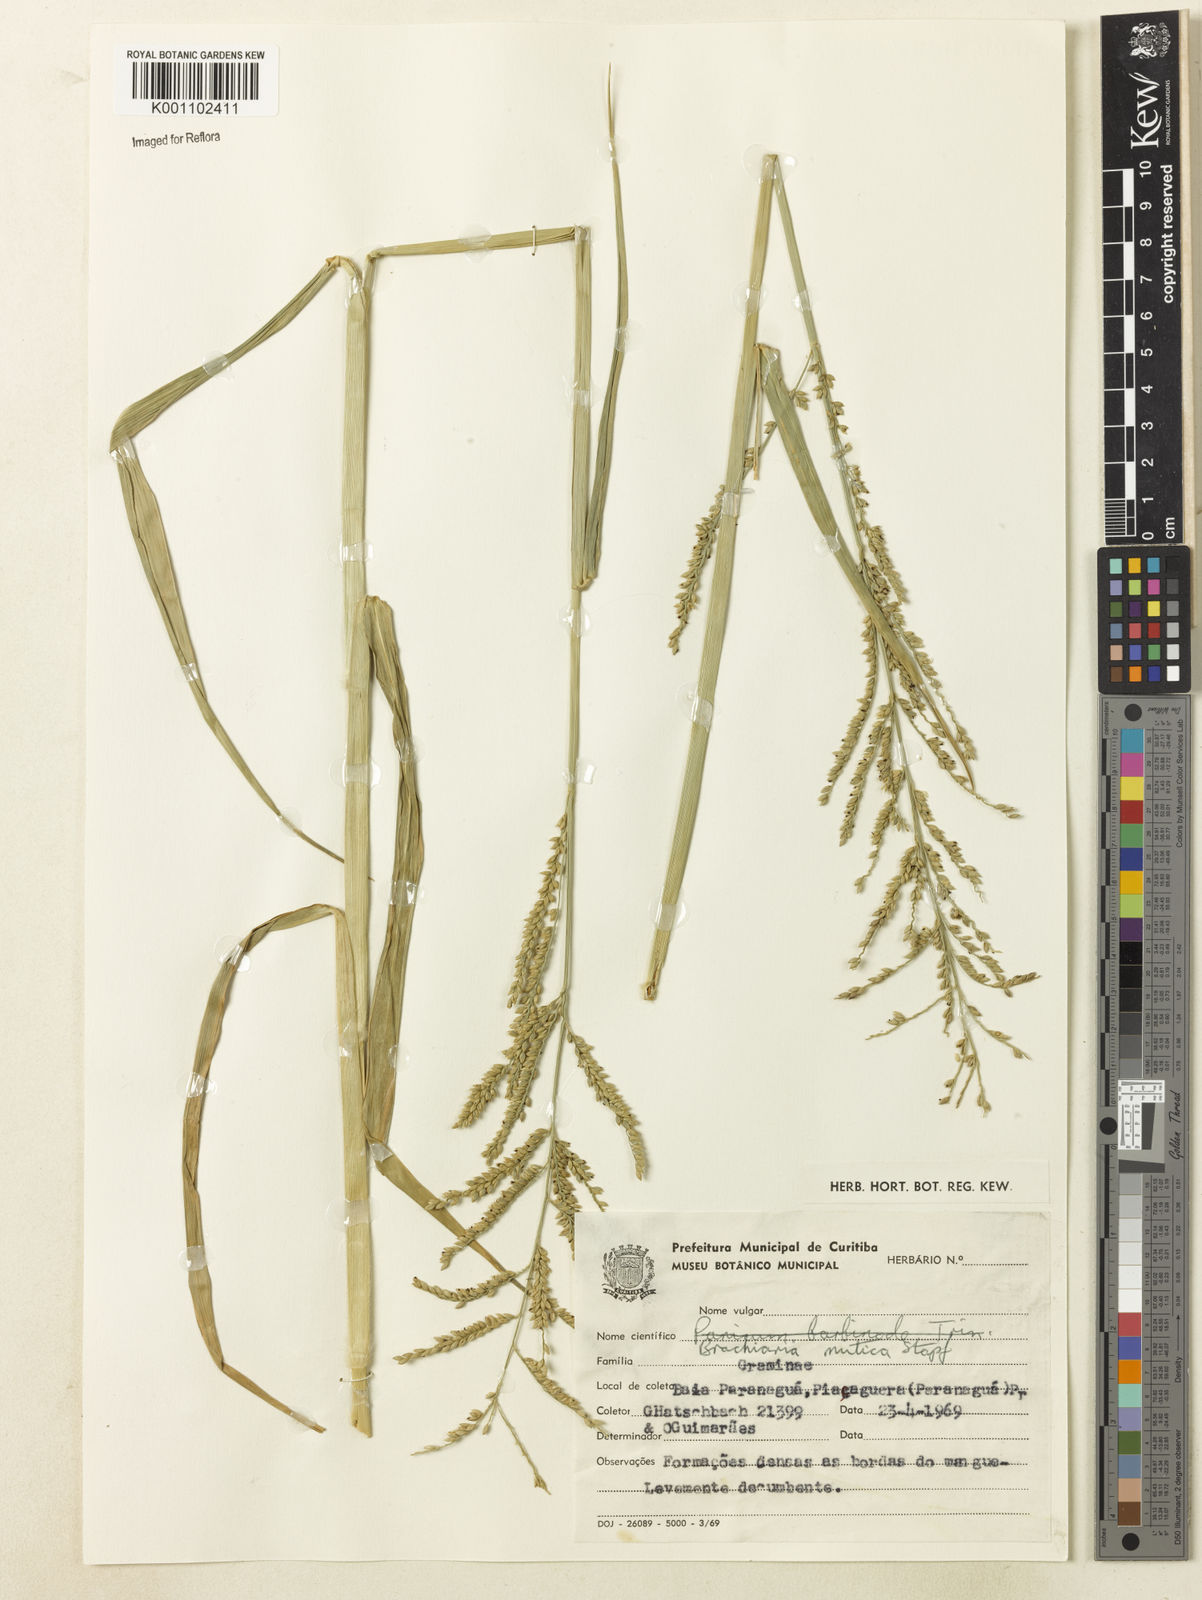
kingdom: Plantae
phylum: Tracheophyta
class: Liliopsida
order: Poales
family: Poaceae
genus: Urochloa
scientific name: Urochloa mutica
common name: Para grass
